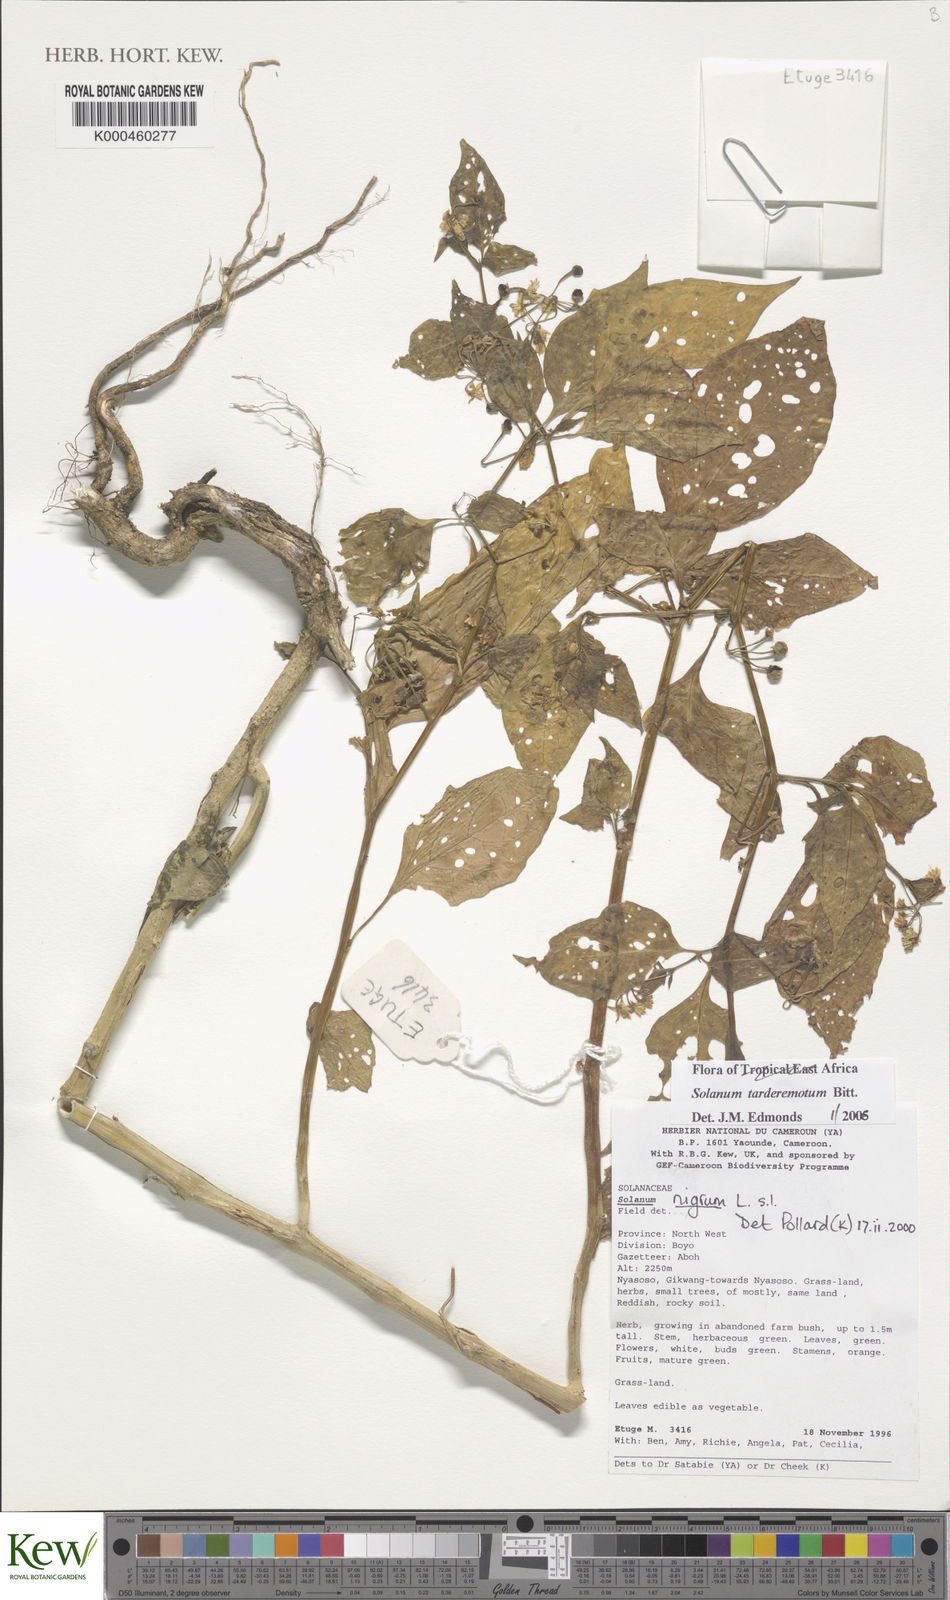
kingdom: Plantae
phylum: Tracheophyta
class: Magnoliopsida
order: Solanales
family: Solanaceae
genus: Solanum
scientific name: Solanum tarderemotum
